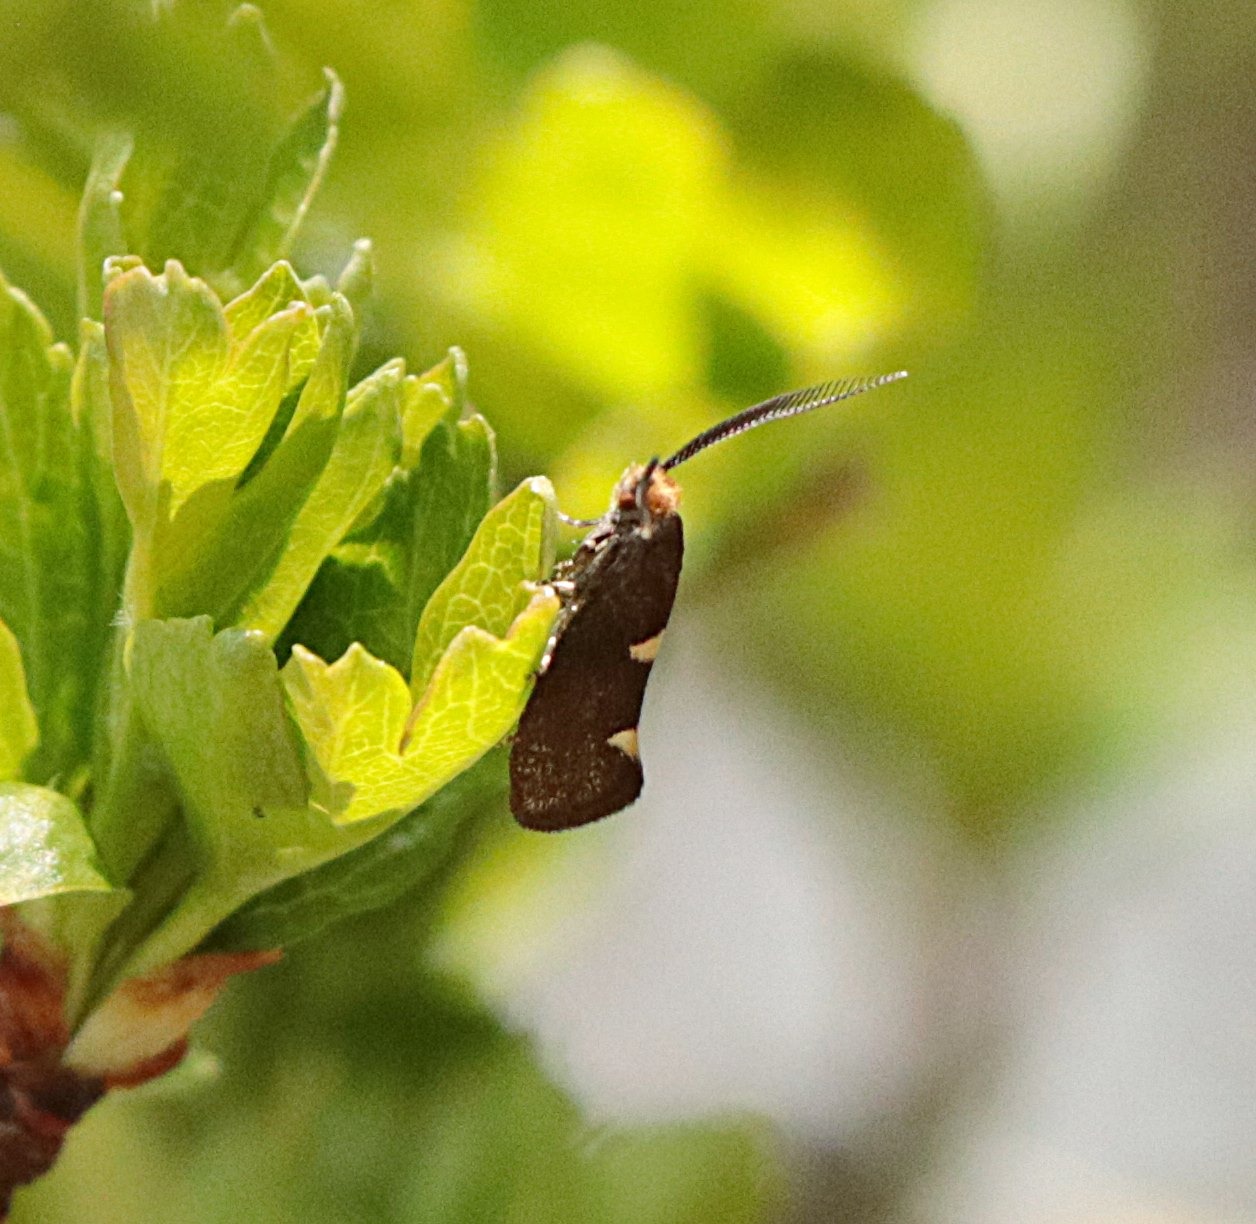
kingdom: Animalia
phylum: Arthropoda
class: Insecta
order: Lepidoptera
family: Incurvariidae
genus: Incurvaria
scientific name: Incurvaria masculella
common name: Mørkt nøjsomt møl
